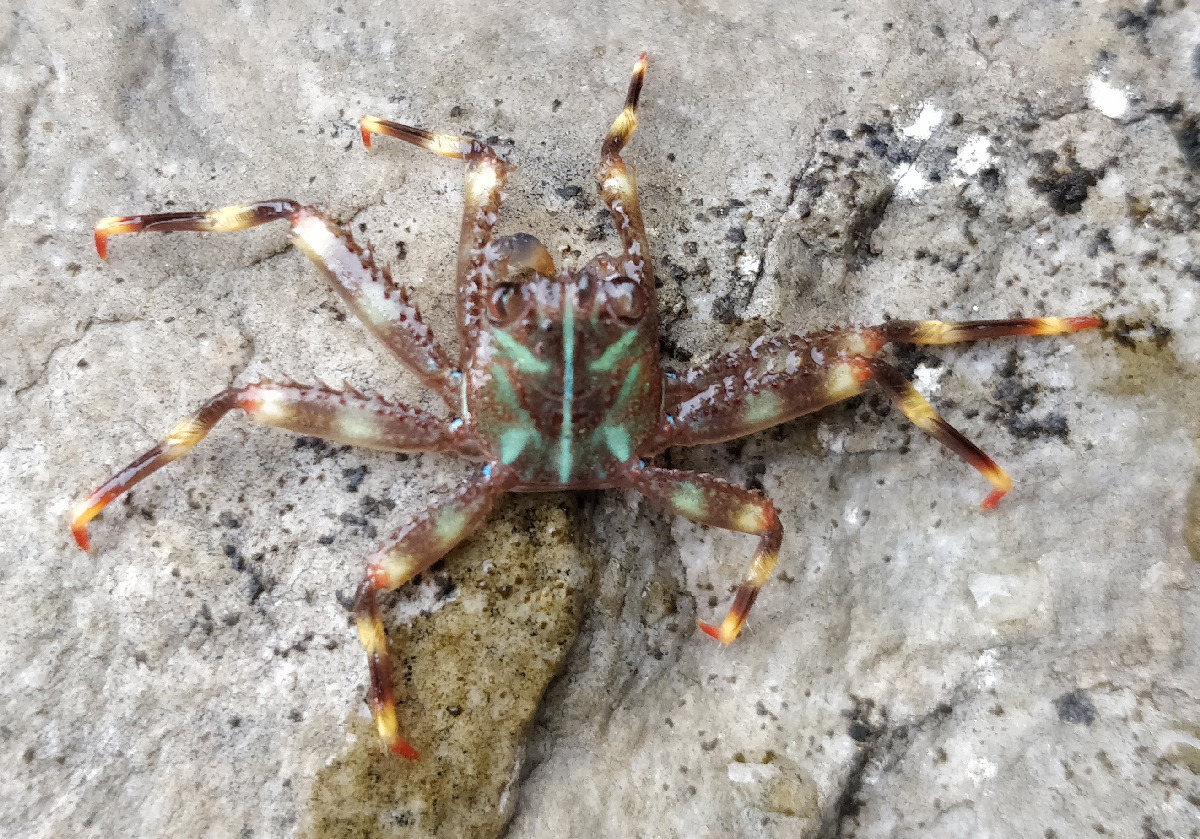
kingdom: Animalia
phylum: Arthropoda
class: Malacostraca
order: Decapoda
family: Percnidae
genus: Percnon
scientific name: Percnon gibbesi
